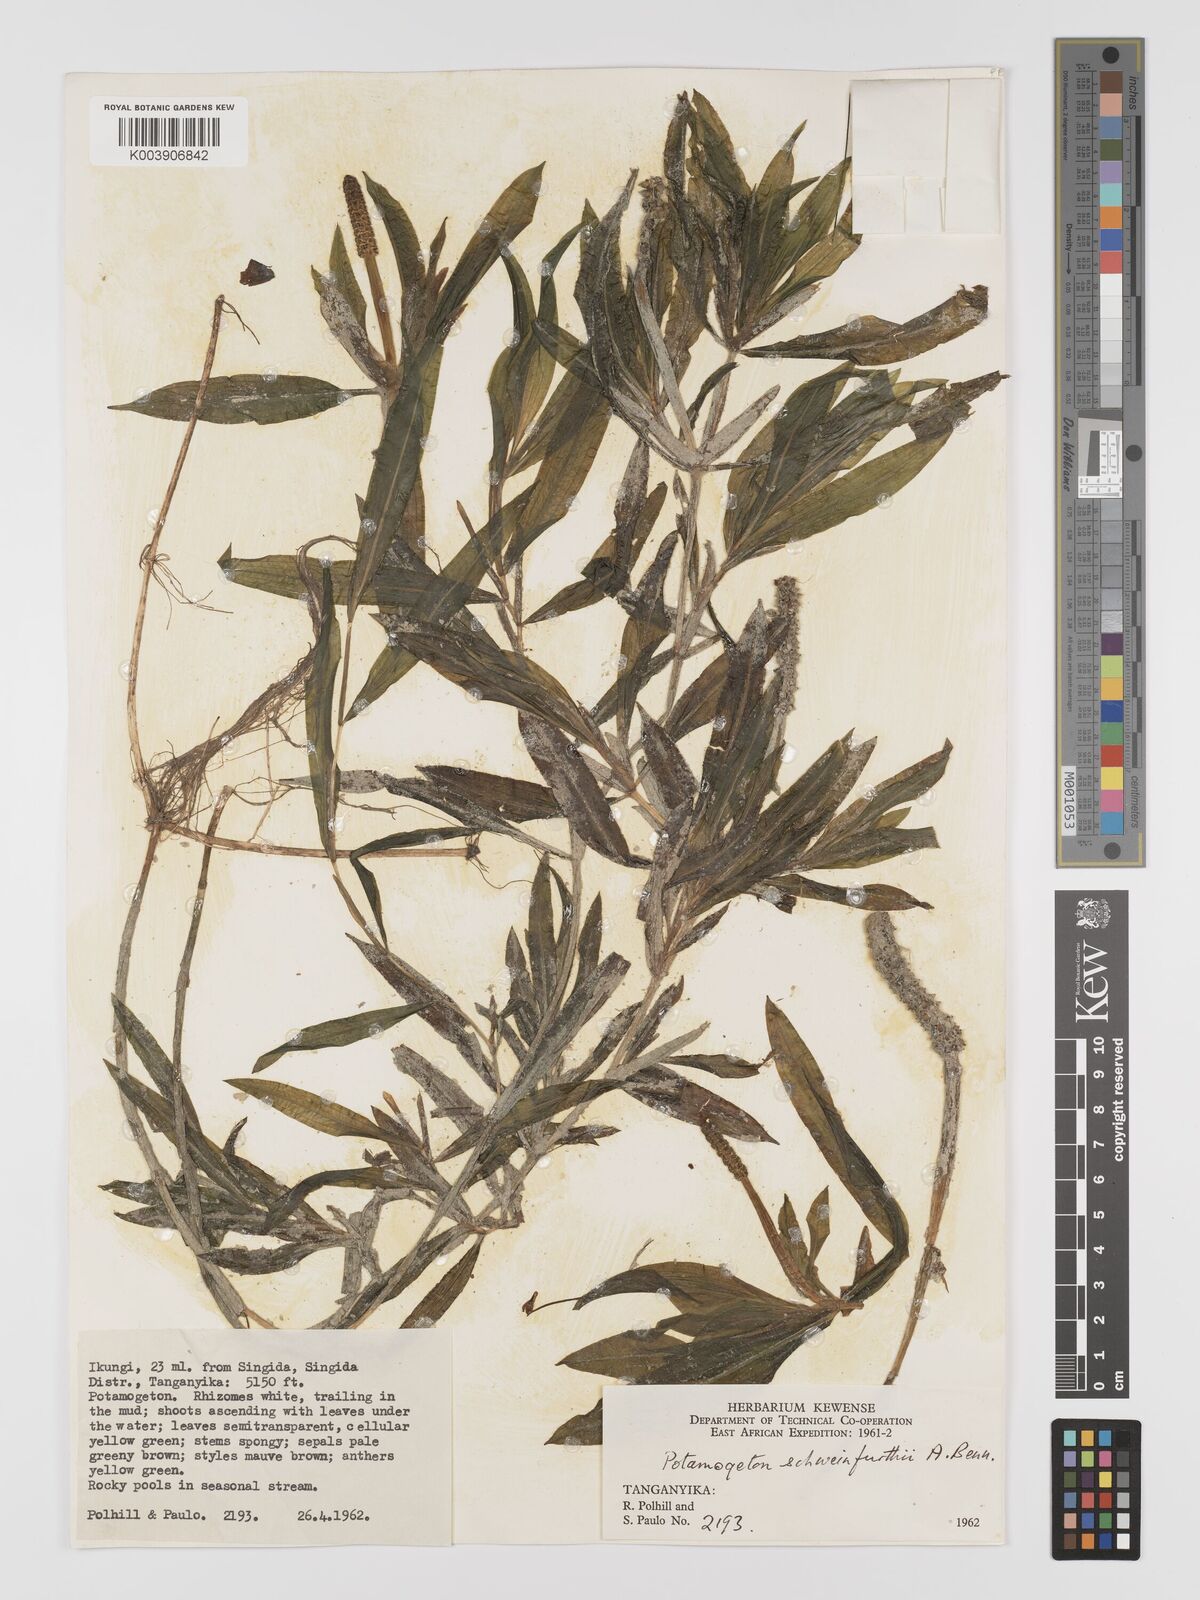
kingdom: Plantae
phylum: Tracheophyta
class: Liliopsida
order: Alismatales
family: Potamogetonaceae
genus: Potamogeton
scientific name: Potamogeton schweinfurthii
